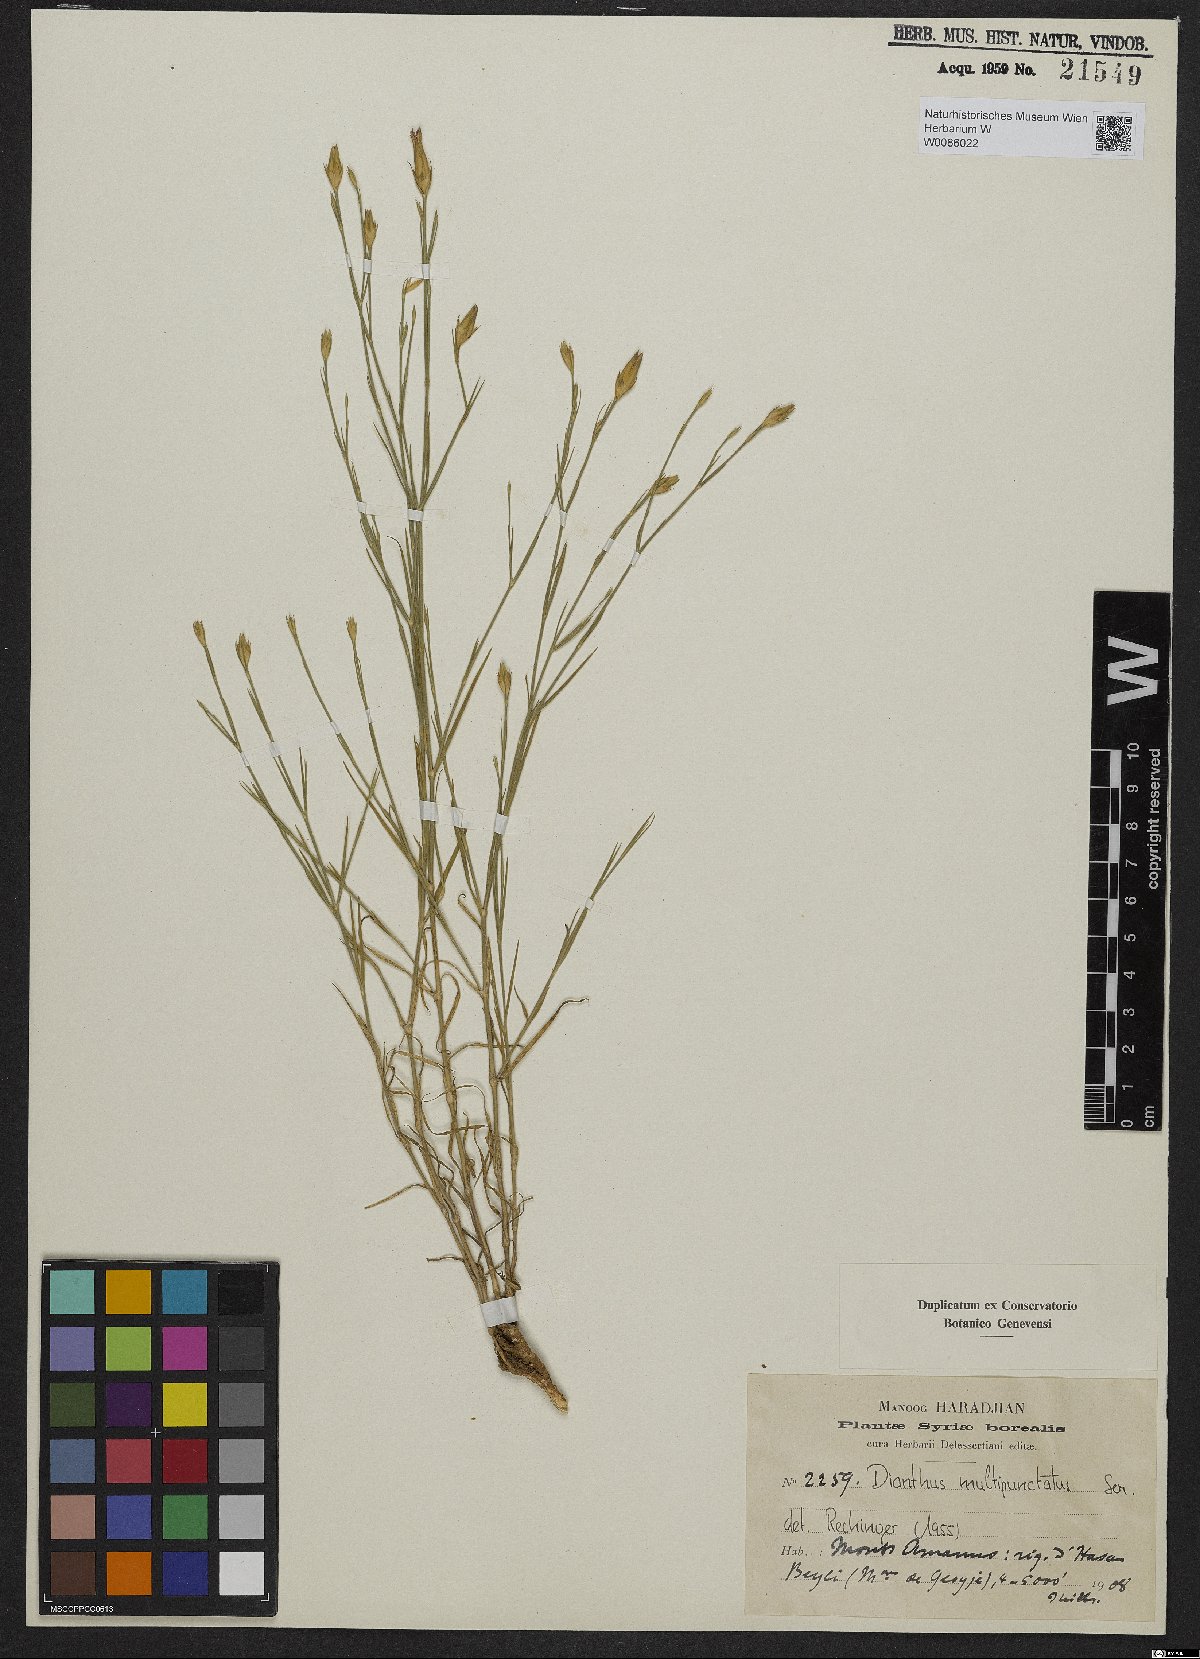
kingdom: Plantae
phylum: Tracheophyta
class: Magnoliopsida
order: Caryophyllales
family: Caryophyllaceae
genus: Dianthus
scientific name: Dianthus strictus
